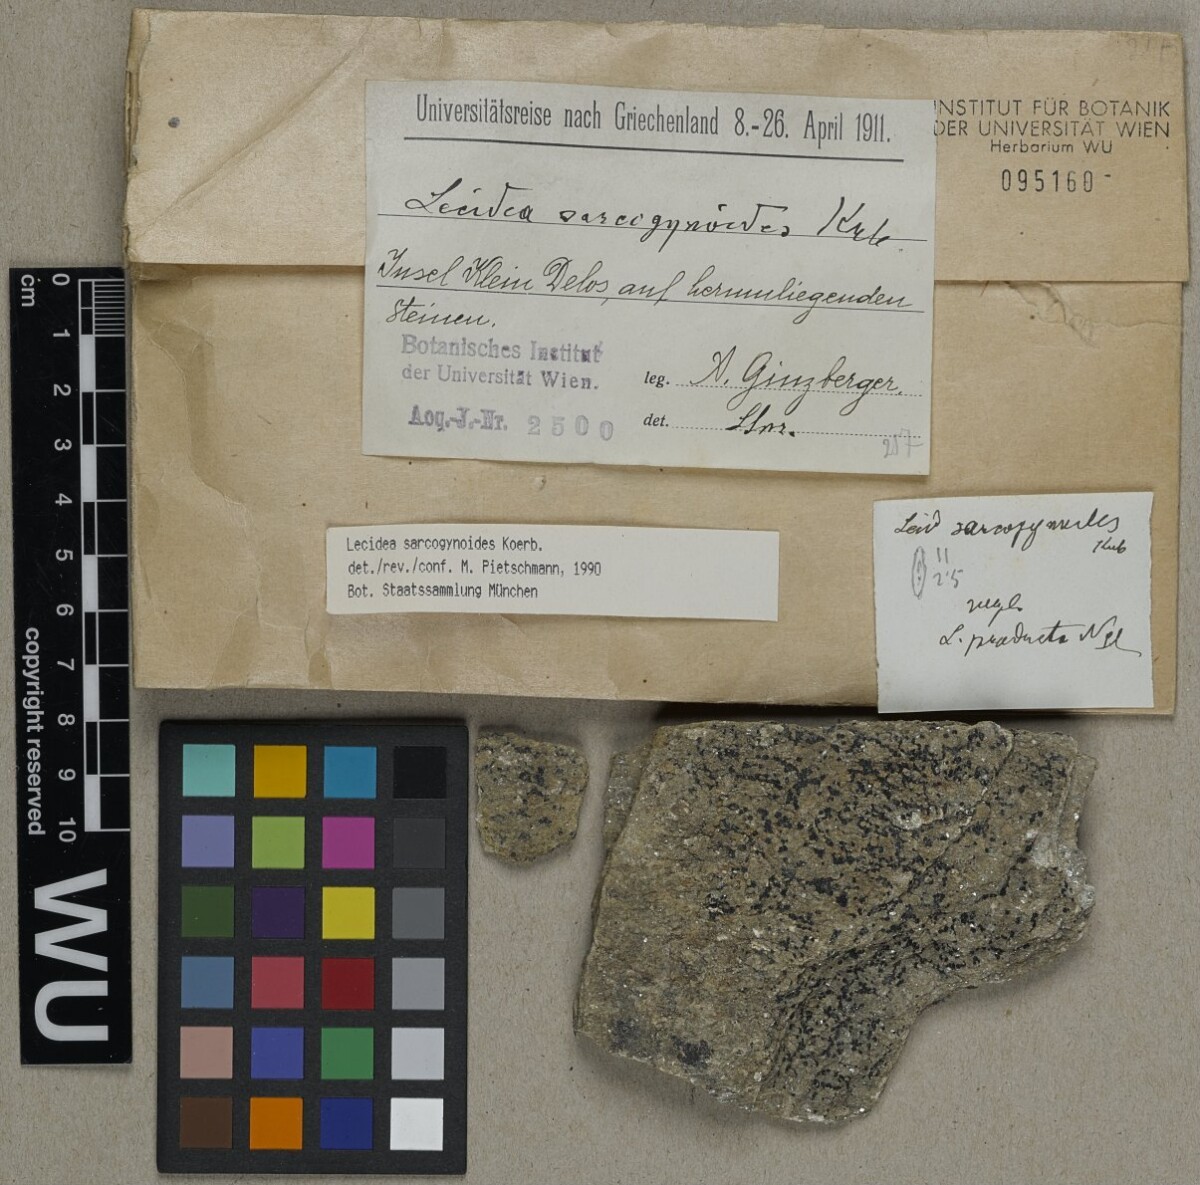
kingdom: Fungi
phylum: Ascomycota
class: Lecanoromycetes
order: Lecideales
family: Lecideaceae
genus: Lecidea
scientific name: Lecidea sarcogynoides
